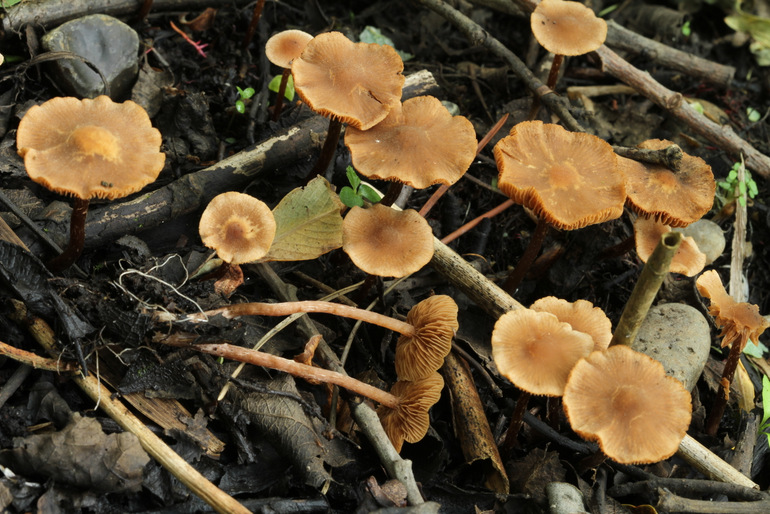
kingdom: Fungi
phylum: Basidiomycota
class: Agaricomycetes
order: Agaricales
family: Hymenogastraceae
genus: Naucoria
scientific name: Naucoria scolecina
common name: mørk elle-knaphat
